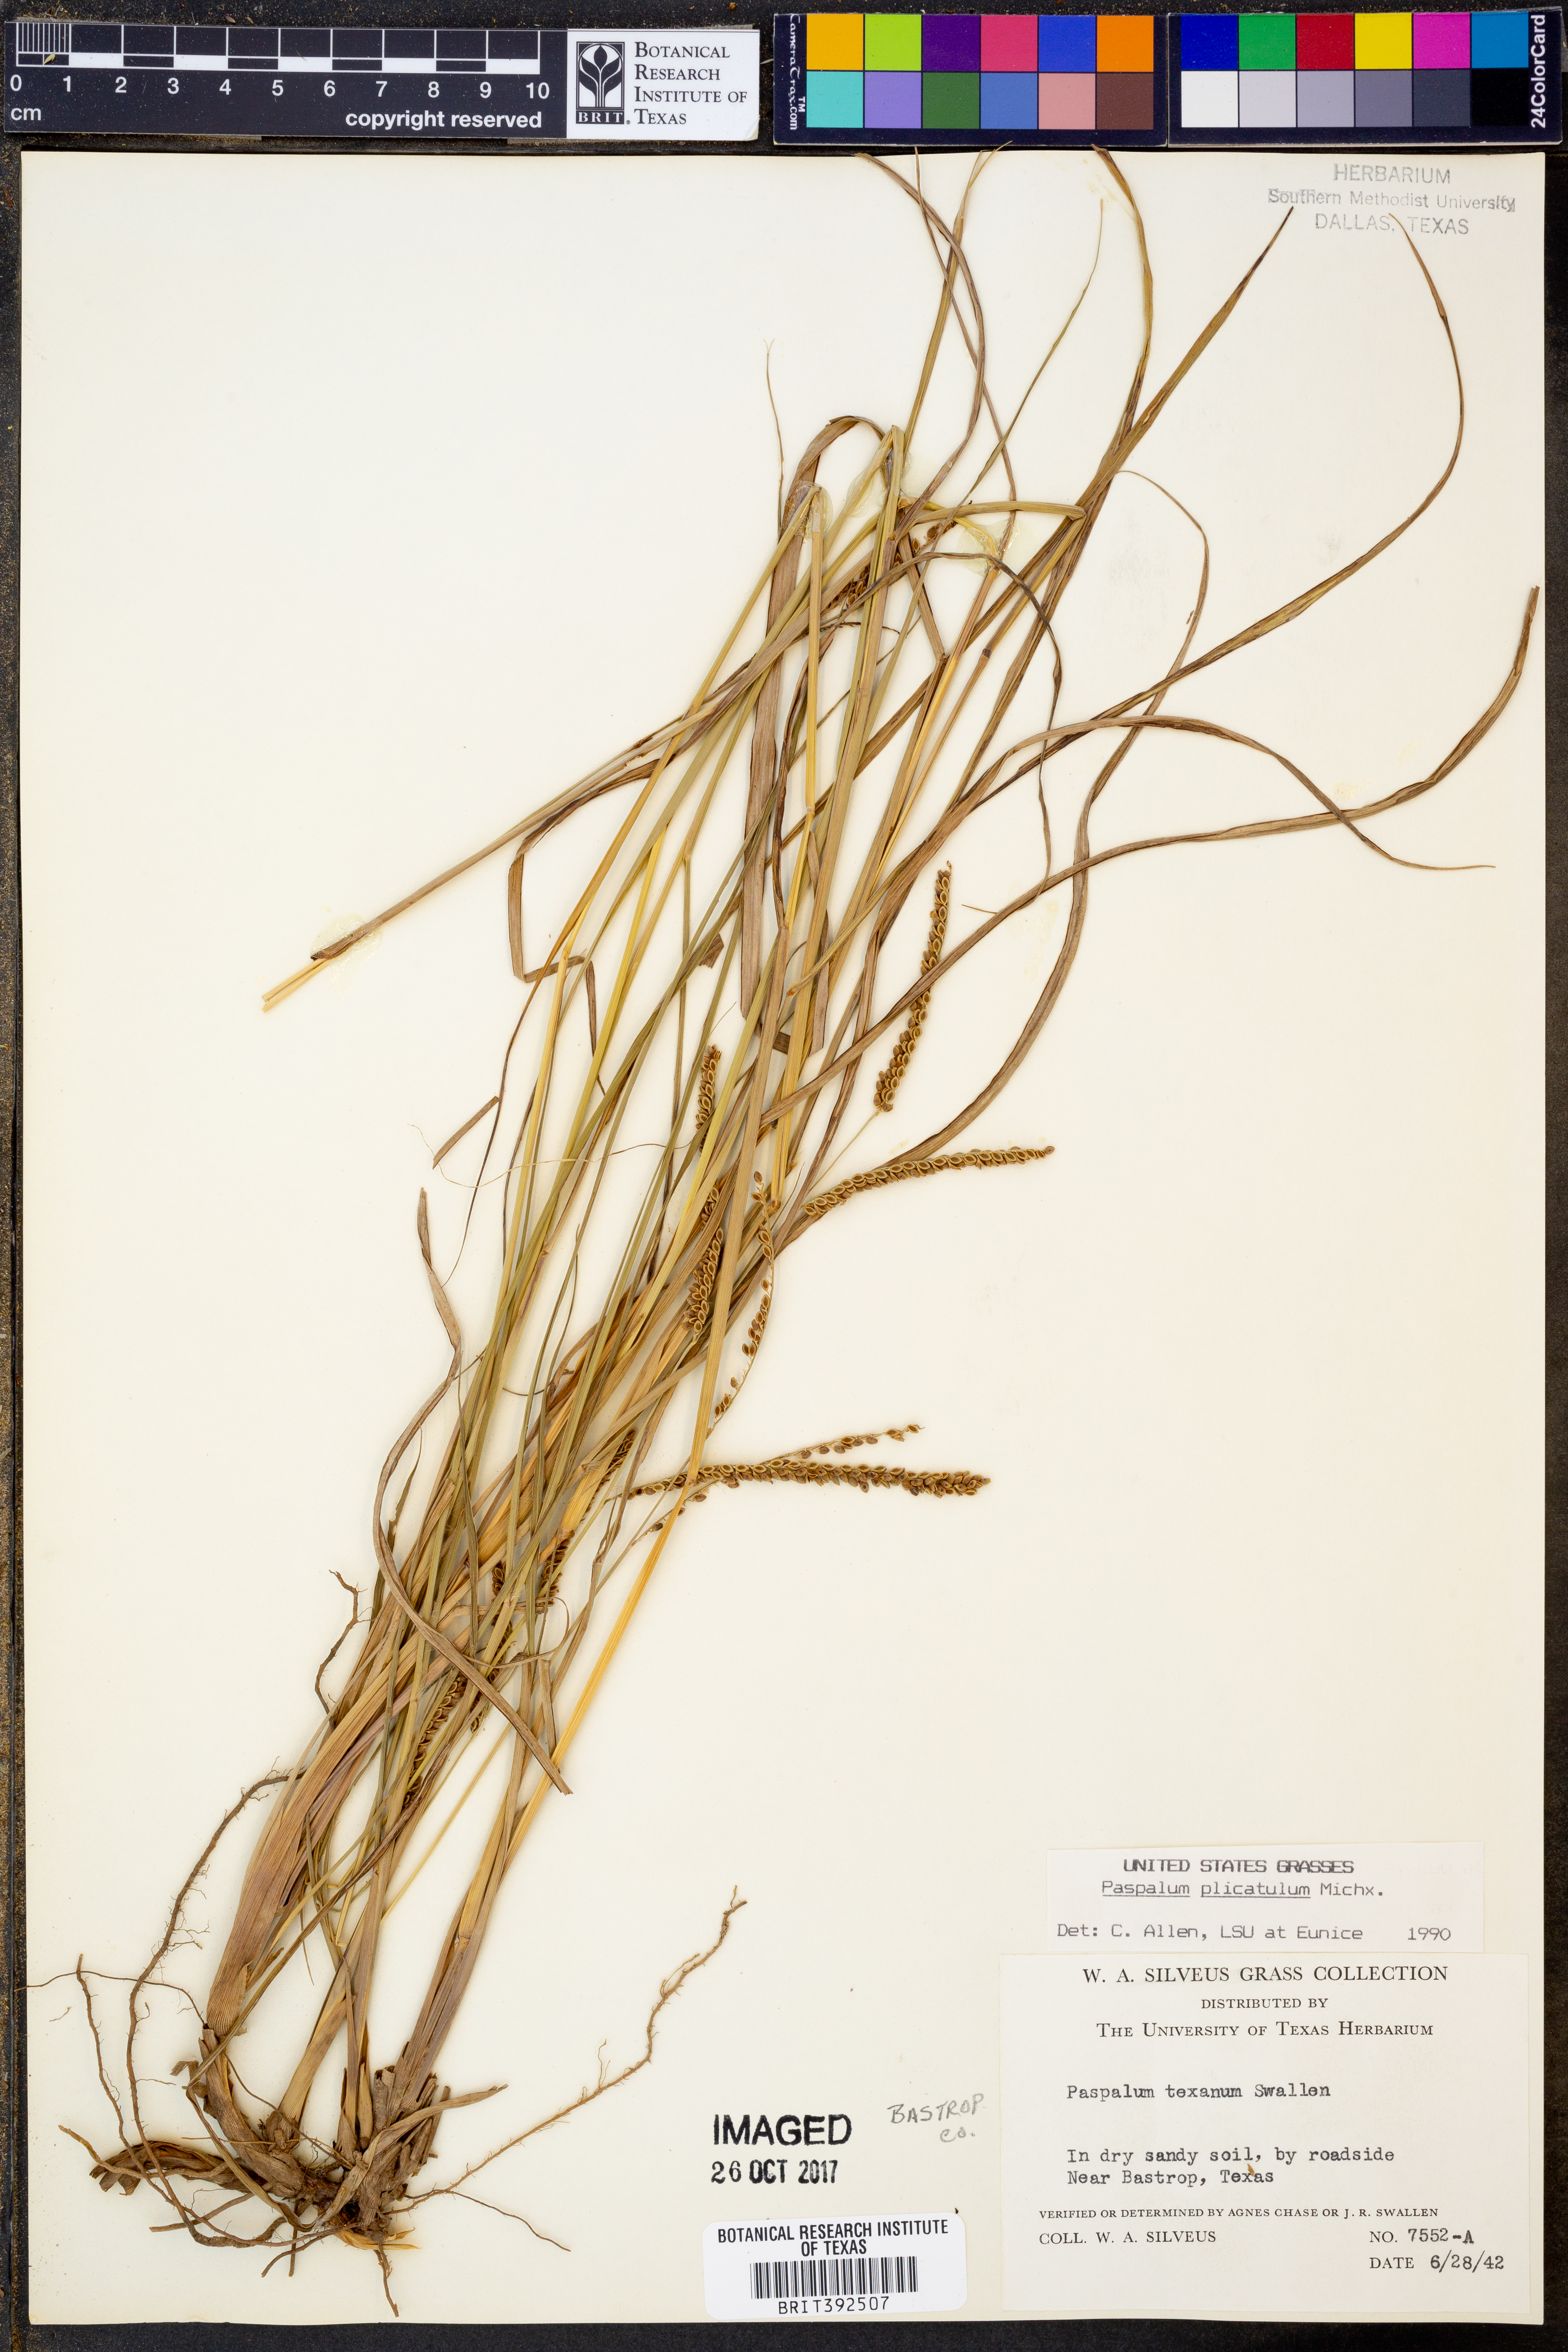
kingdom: Plantae
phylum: Tracheophyta
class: Liliopsida
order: Poales
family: Poaceae
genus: Paspalum
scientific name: Paspalum plicatulum
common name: Top paspalum
